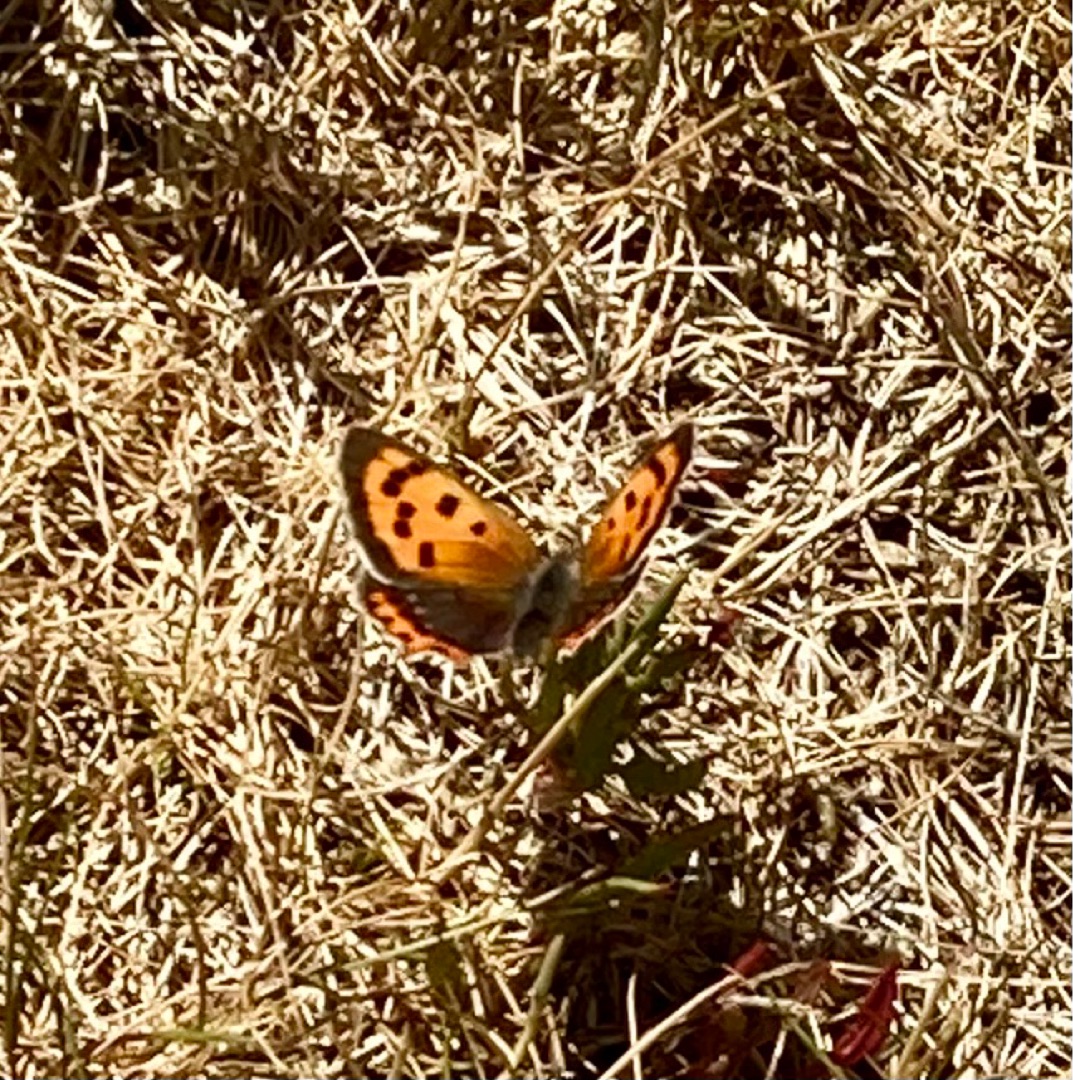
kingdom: Animalia
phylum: Arthropoda
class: Insecta
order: Lepidoptera
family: Lycaenidae
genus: Lycaena
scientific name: Lycaena phlaeas
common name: Lille ildfugl
